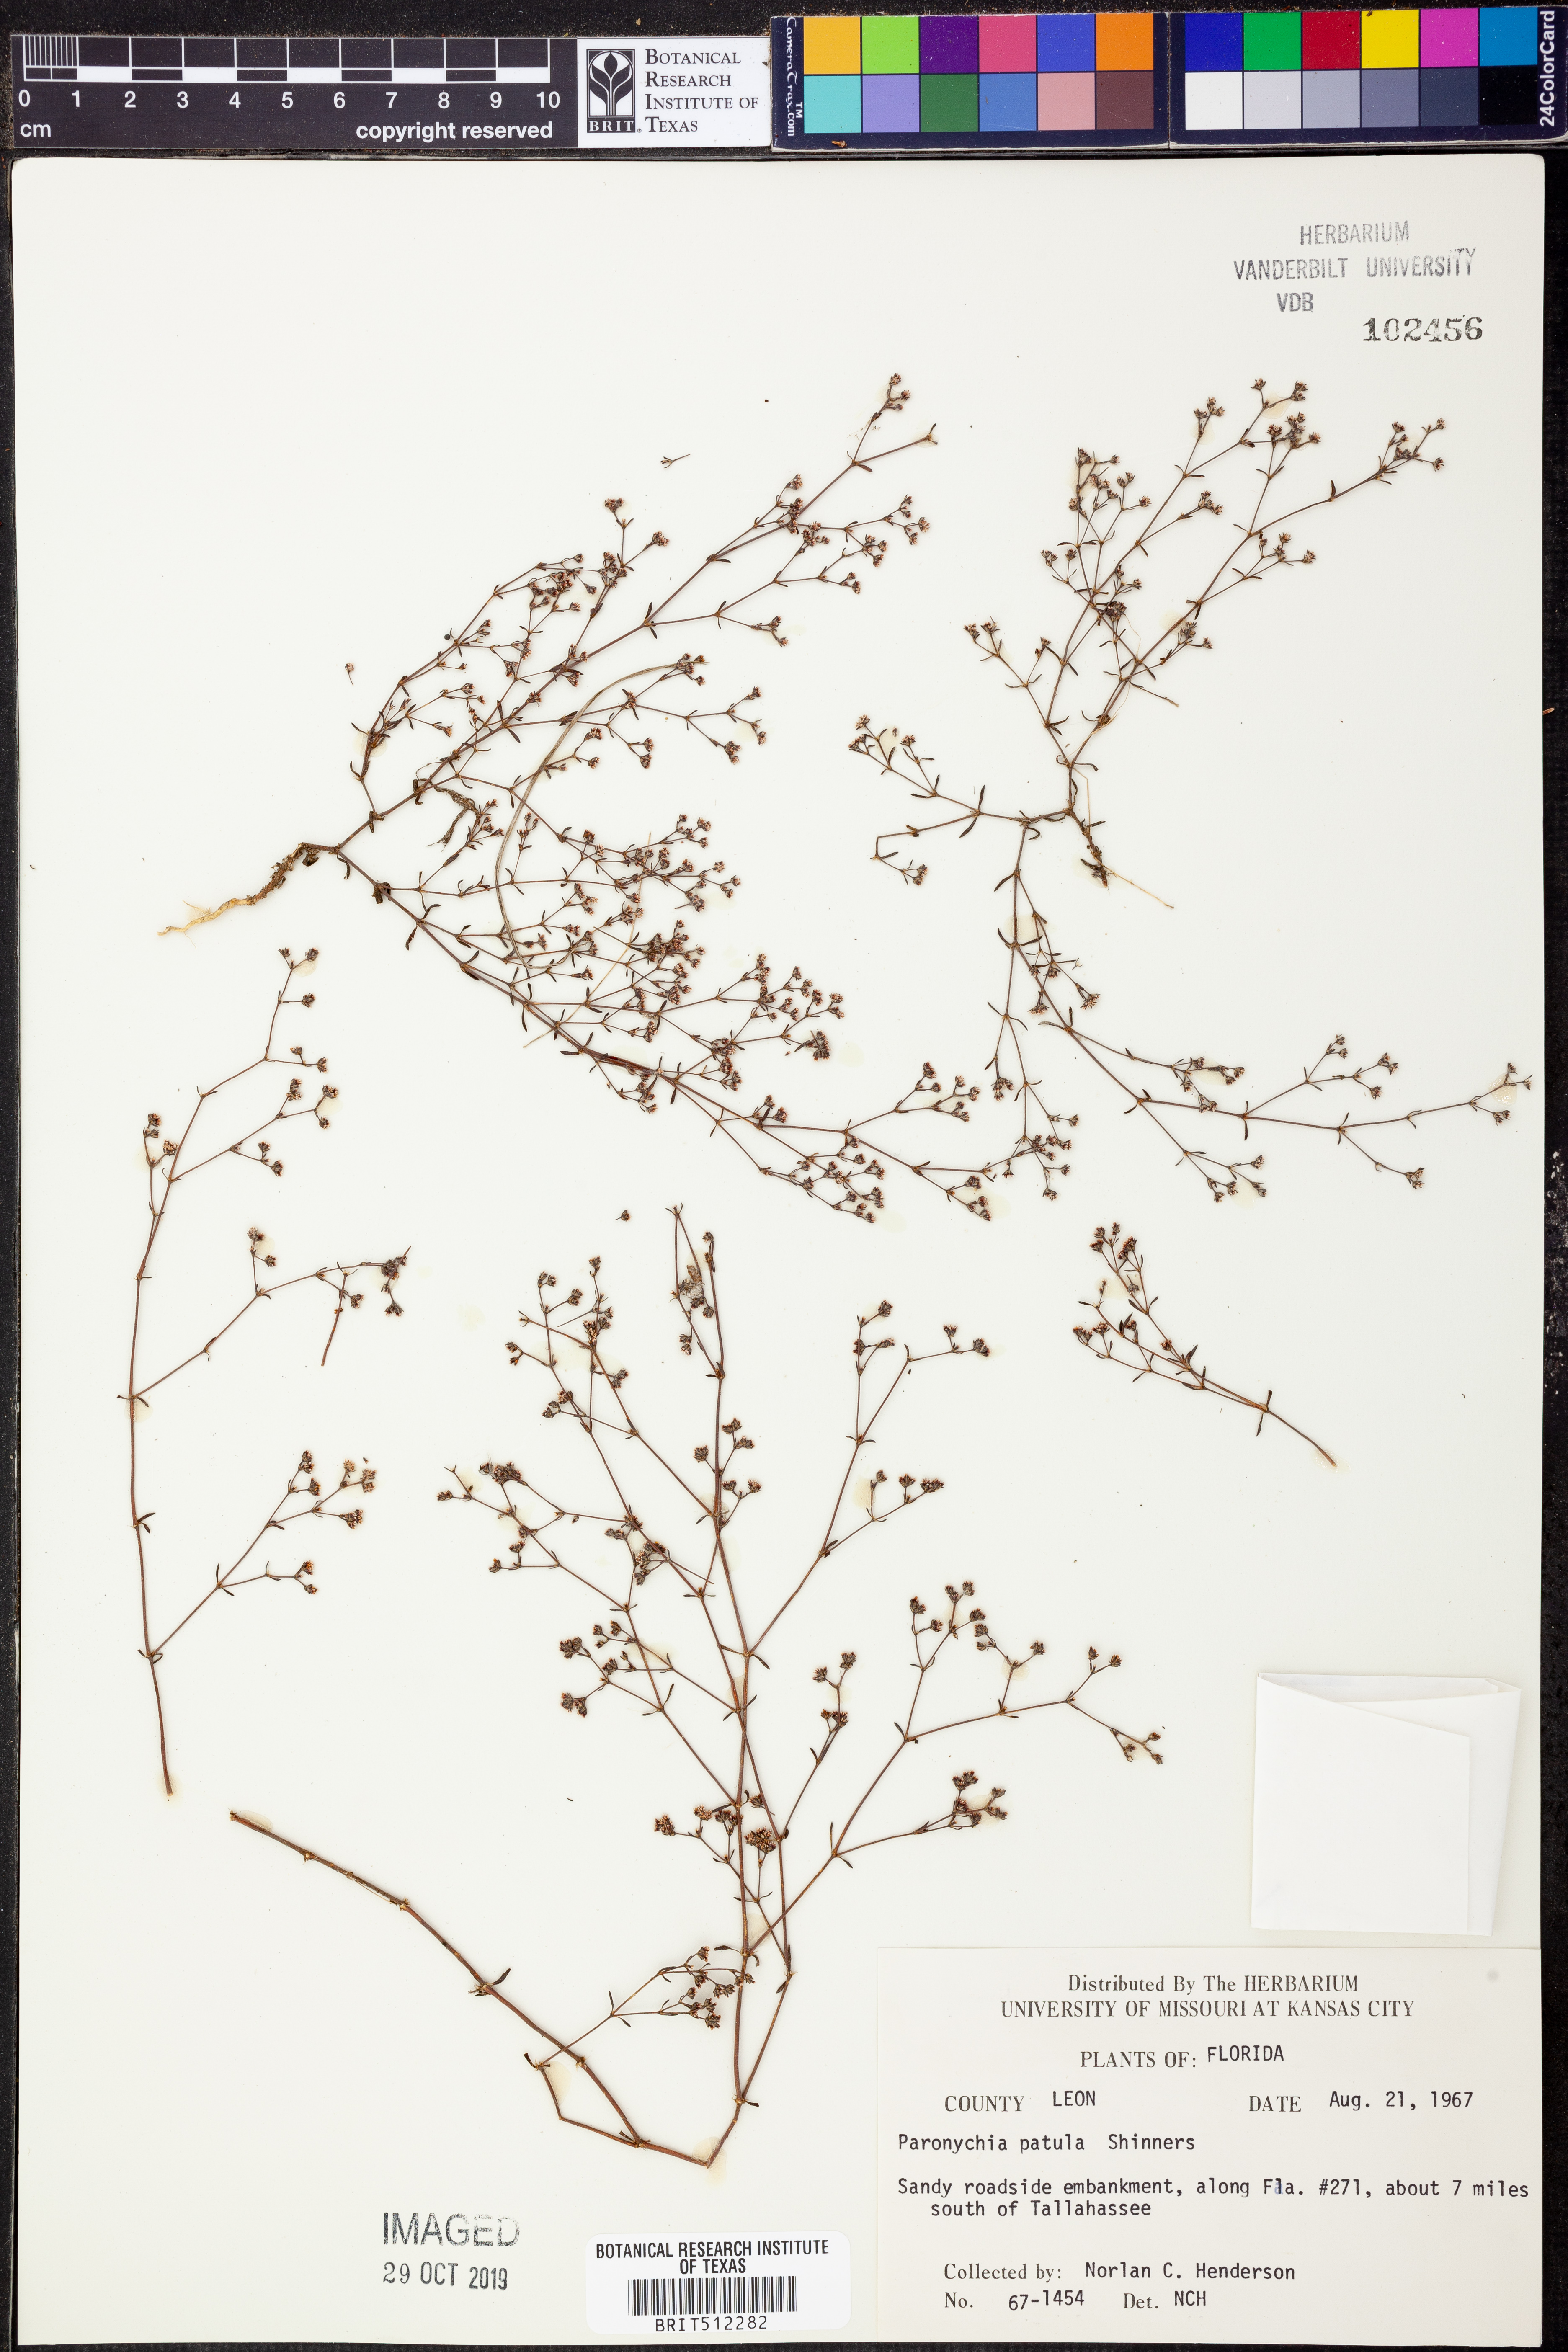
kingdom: Plantae
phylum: Tracheophyta
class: Magnoliopsida
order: Caryophyllales
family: Caryophyllaceae
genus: Paronychia
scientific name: Paronychia patula
